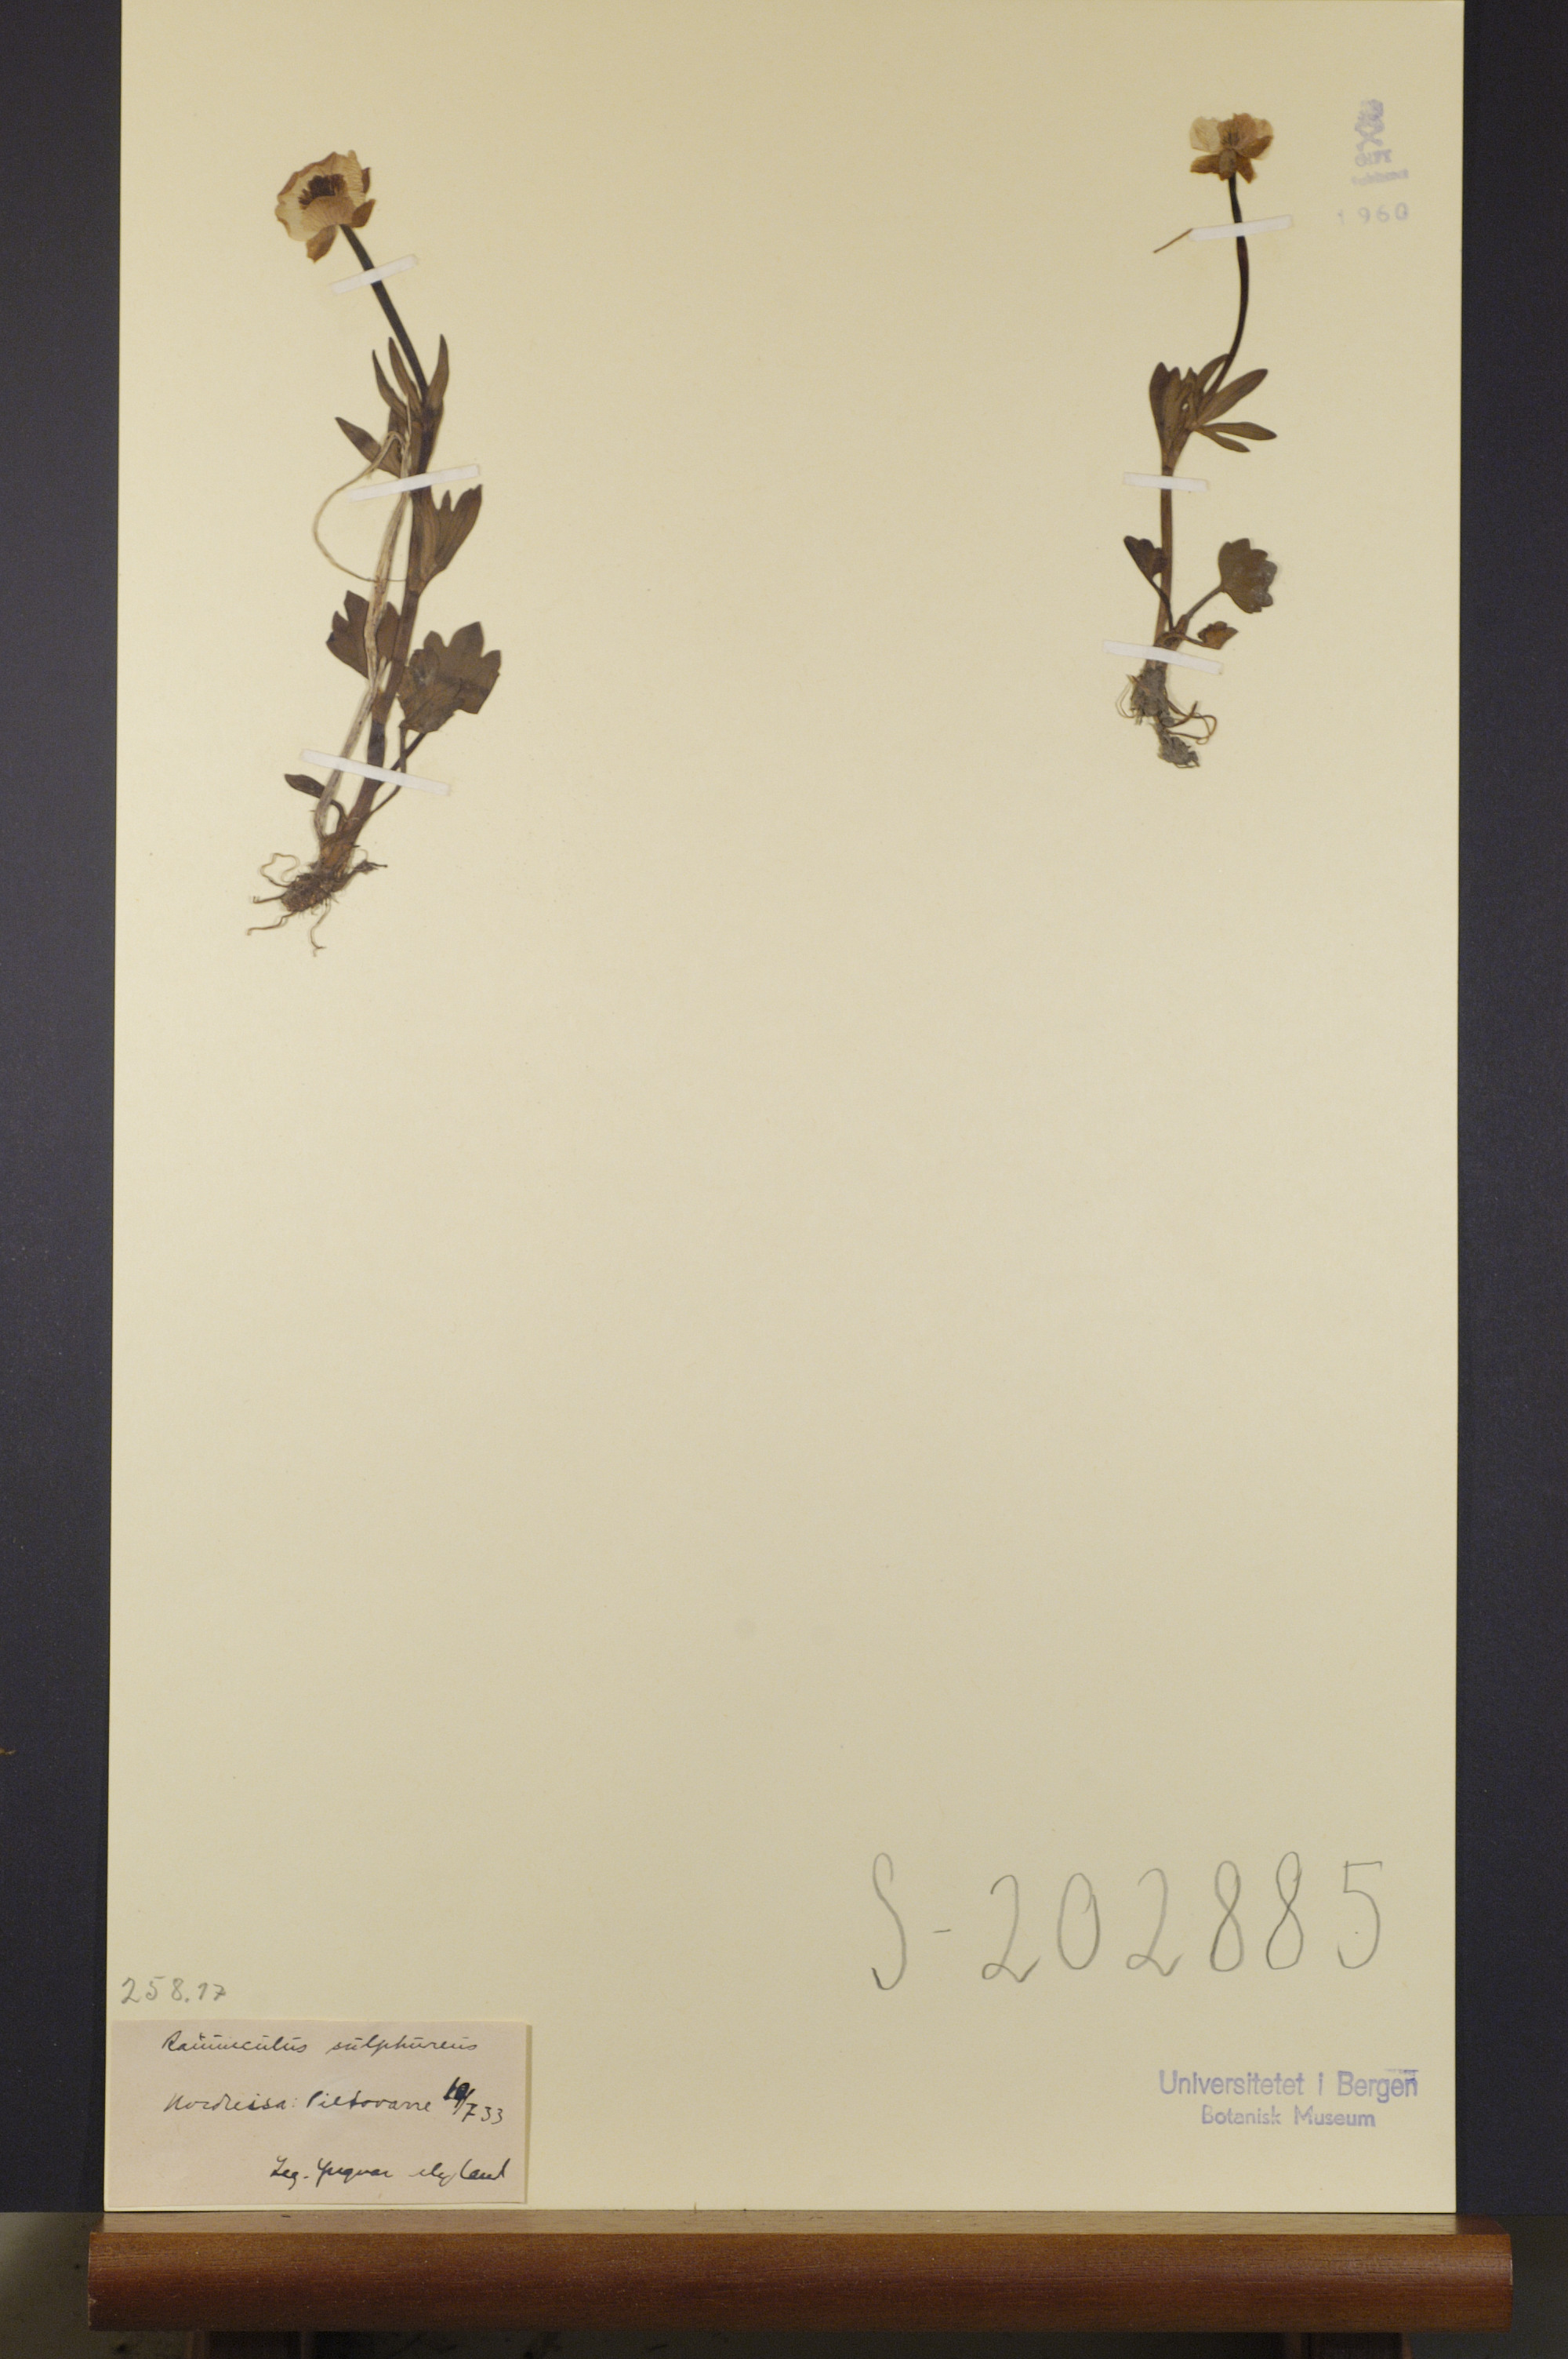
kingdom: Plantae
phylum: Tracheophyta
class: Magnoliopsida
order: Ranunculales
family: Ranunculaceae
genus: Ranunculus
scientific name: Ranunculus sulphureus
